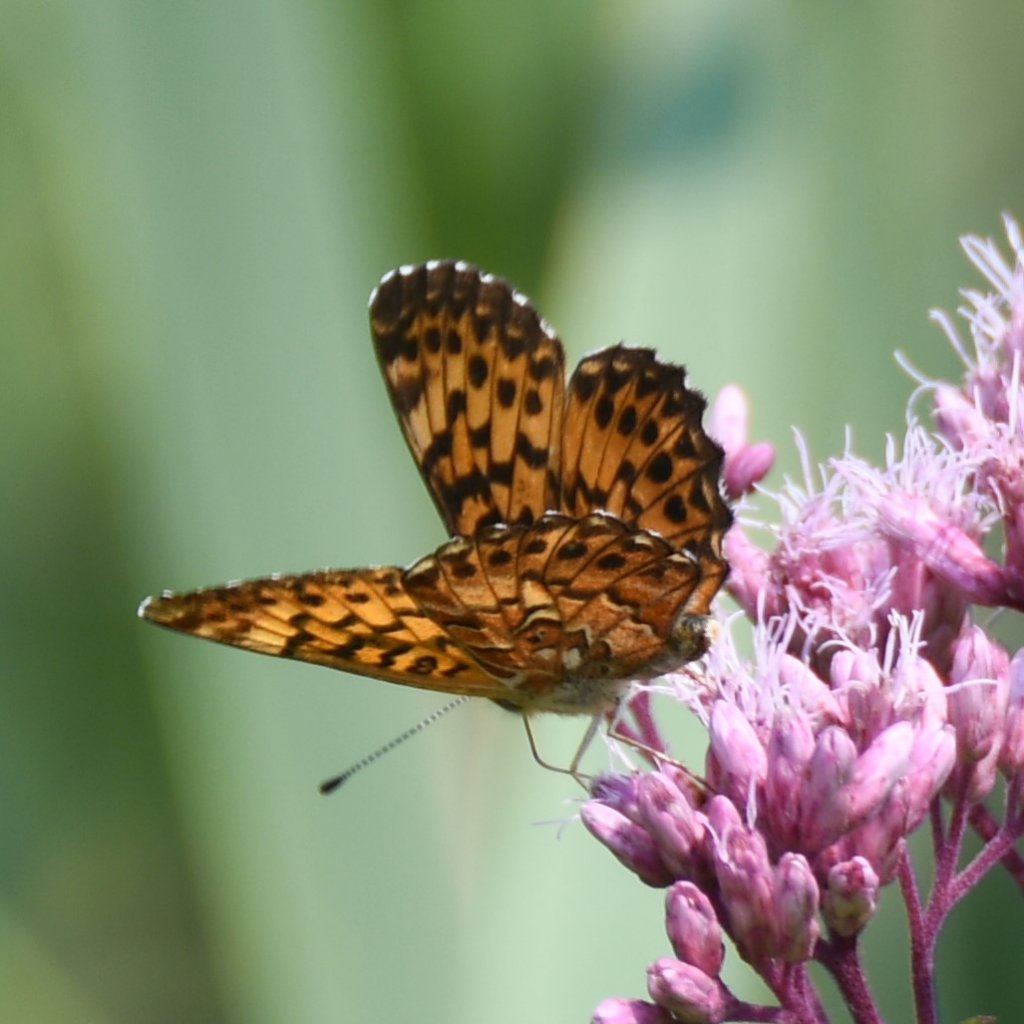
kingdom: Animalia
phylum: Arthropoda
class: Insecta
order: Lepidoptera
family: Nymphalidae
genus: Boloria
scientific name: Boloria chariclea
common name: Arctic Fritillary
